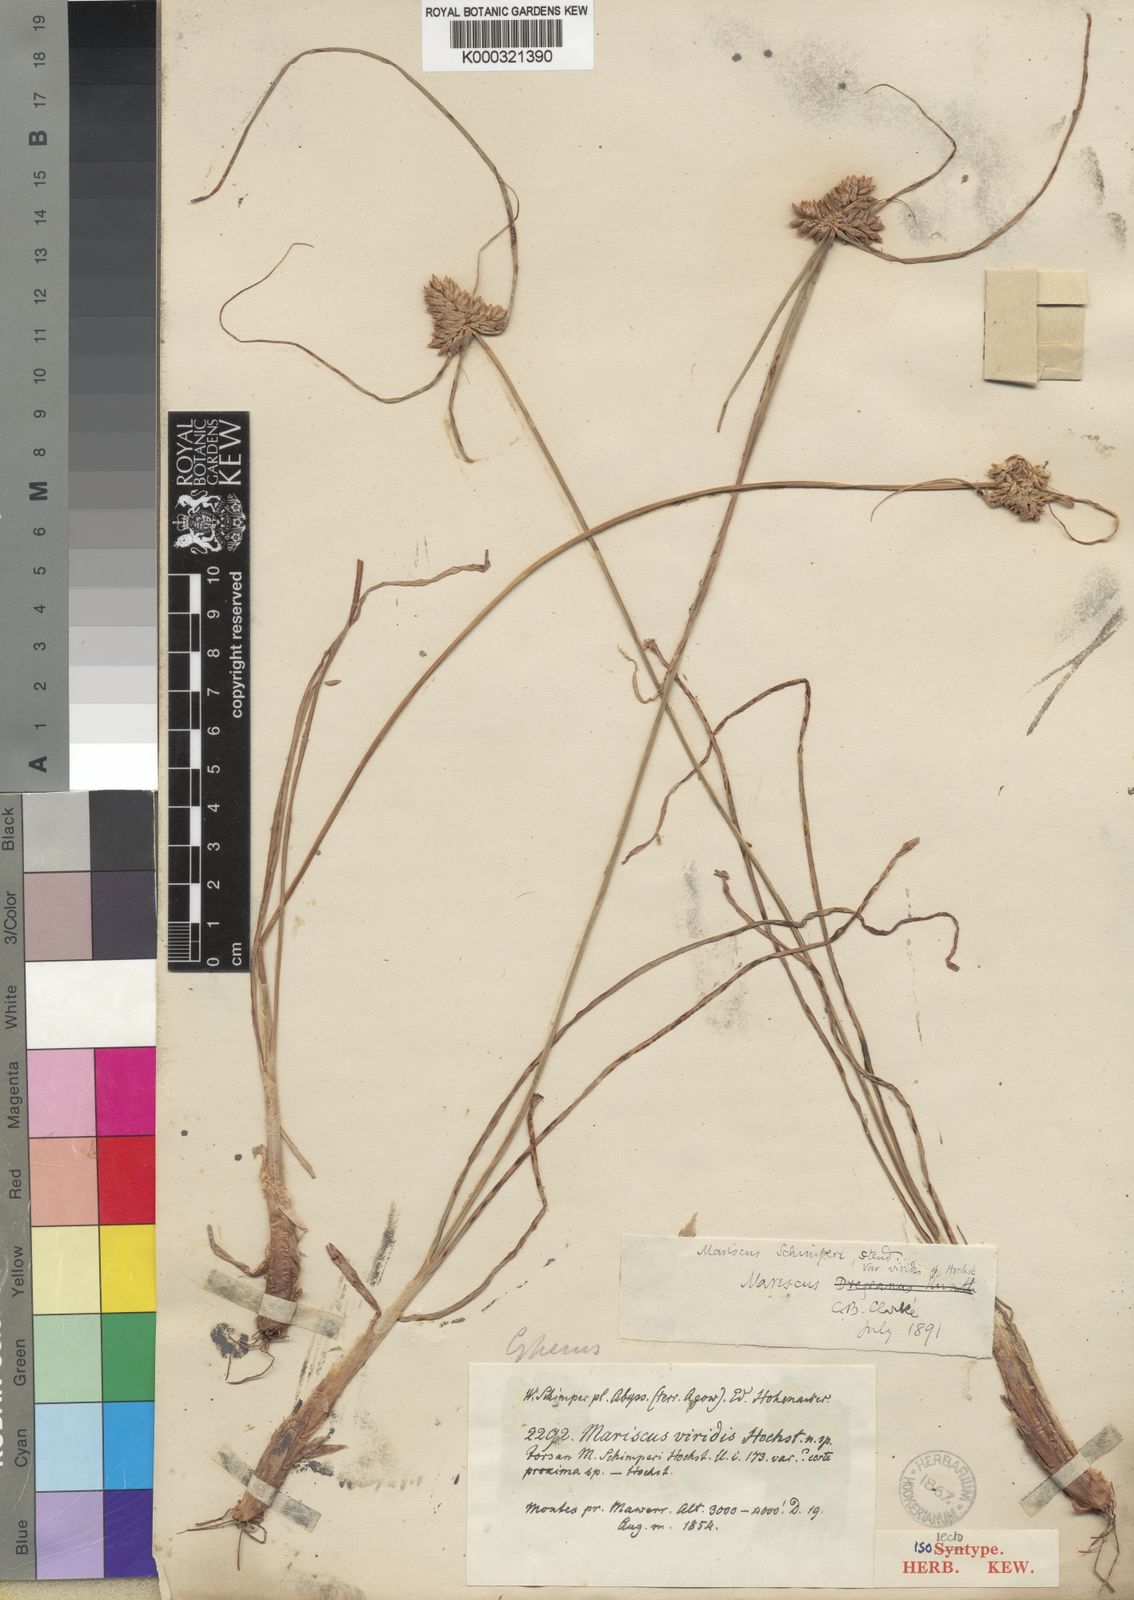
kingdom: Plantae
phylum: Tracheophyta
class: Liliopsida
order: Poales
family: Cyperaceae
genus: Cyperus
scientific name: Cyperus cruentus
